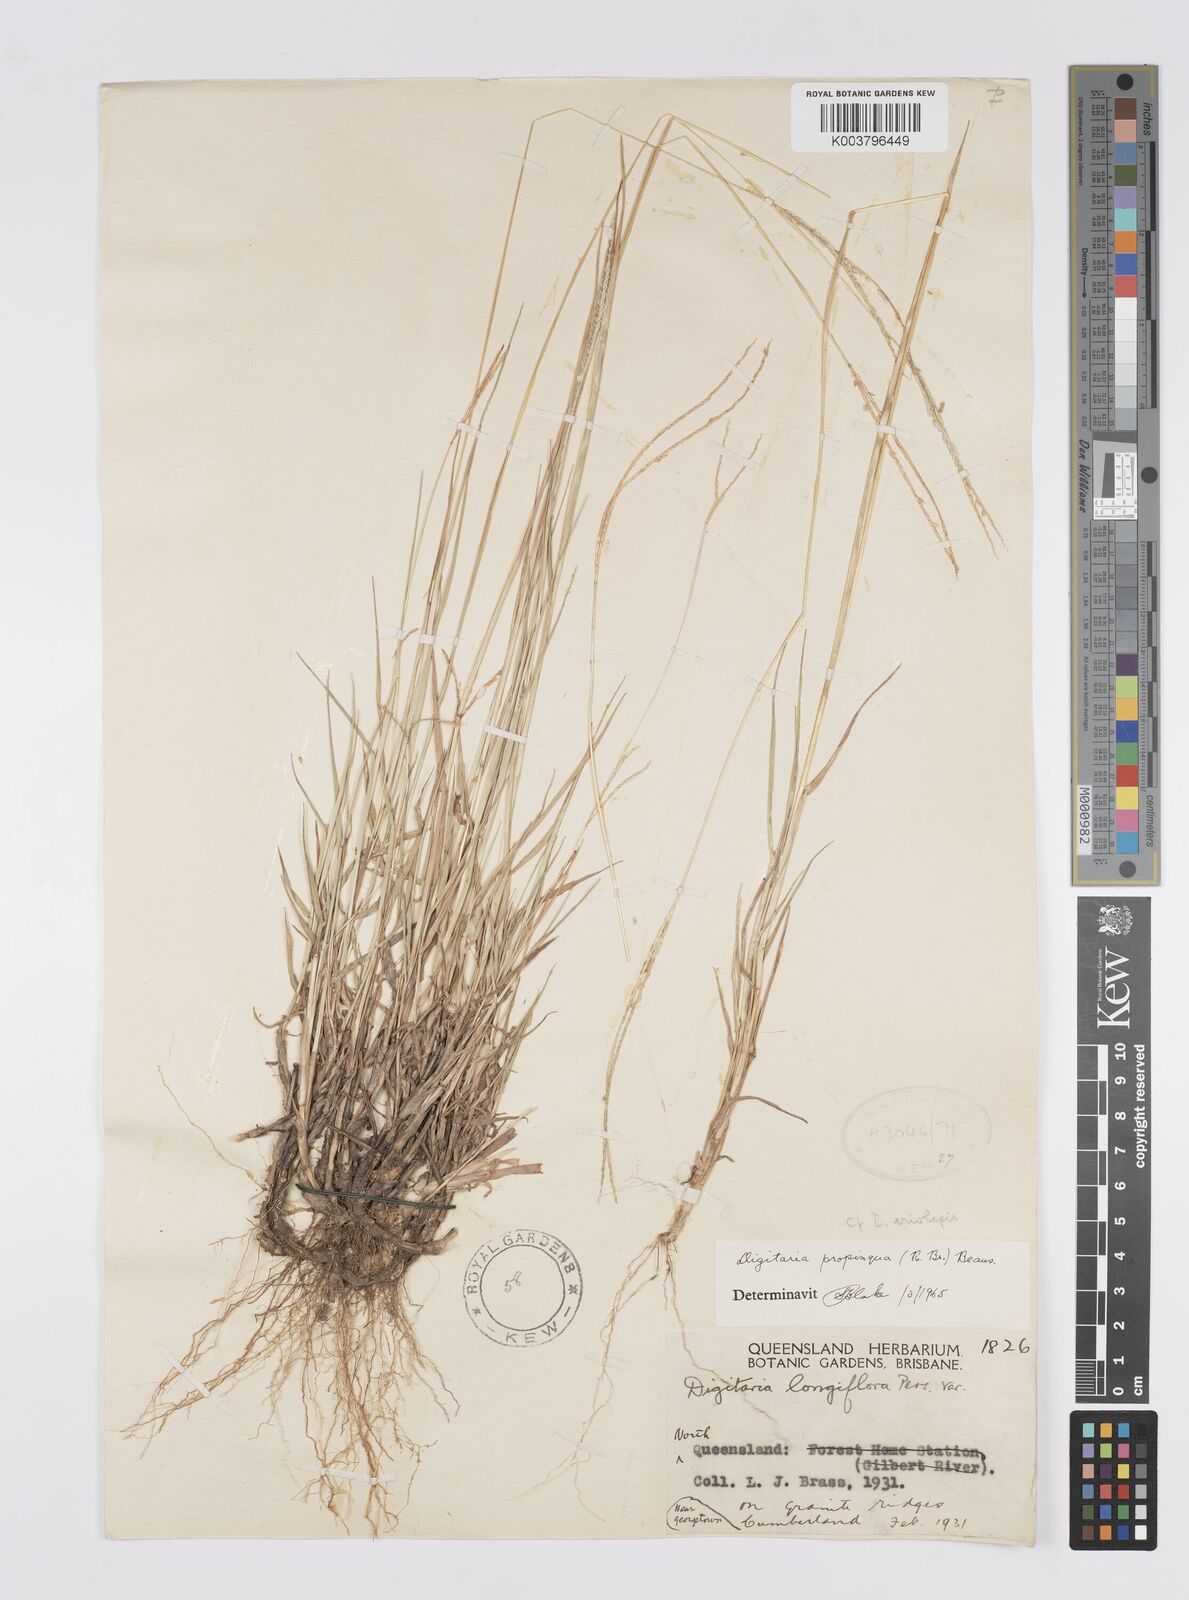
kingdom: Plantae
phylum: Tracheophyta
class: Liliopsida
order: Poales
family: Poaceae
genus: Digitaria
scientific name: Digitaria longiflora
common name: Wire crabgrass
